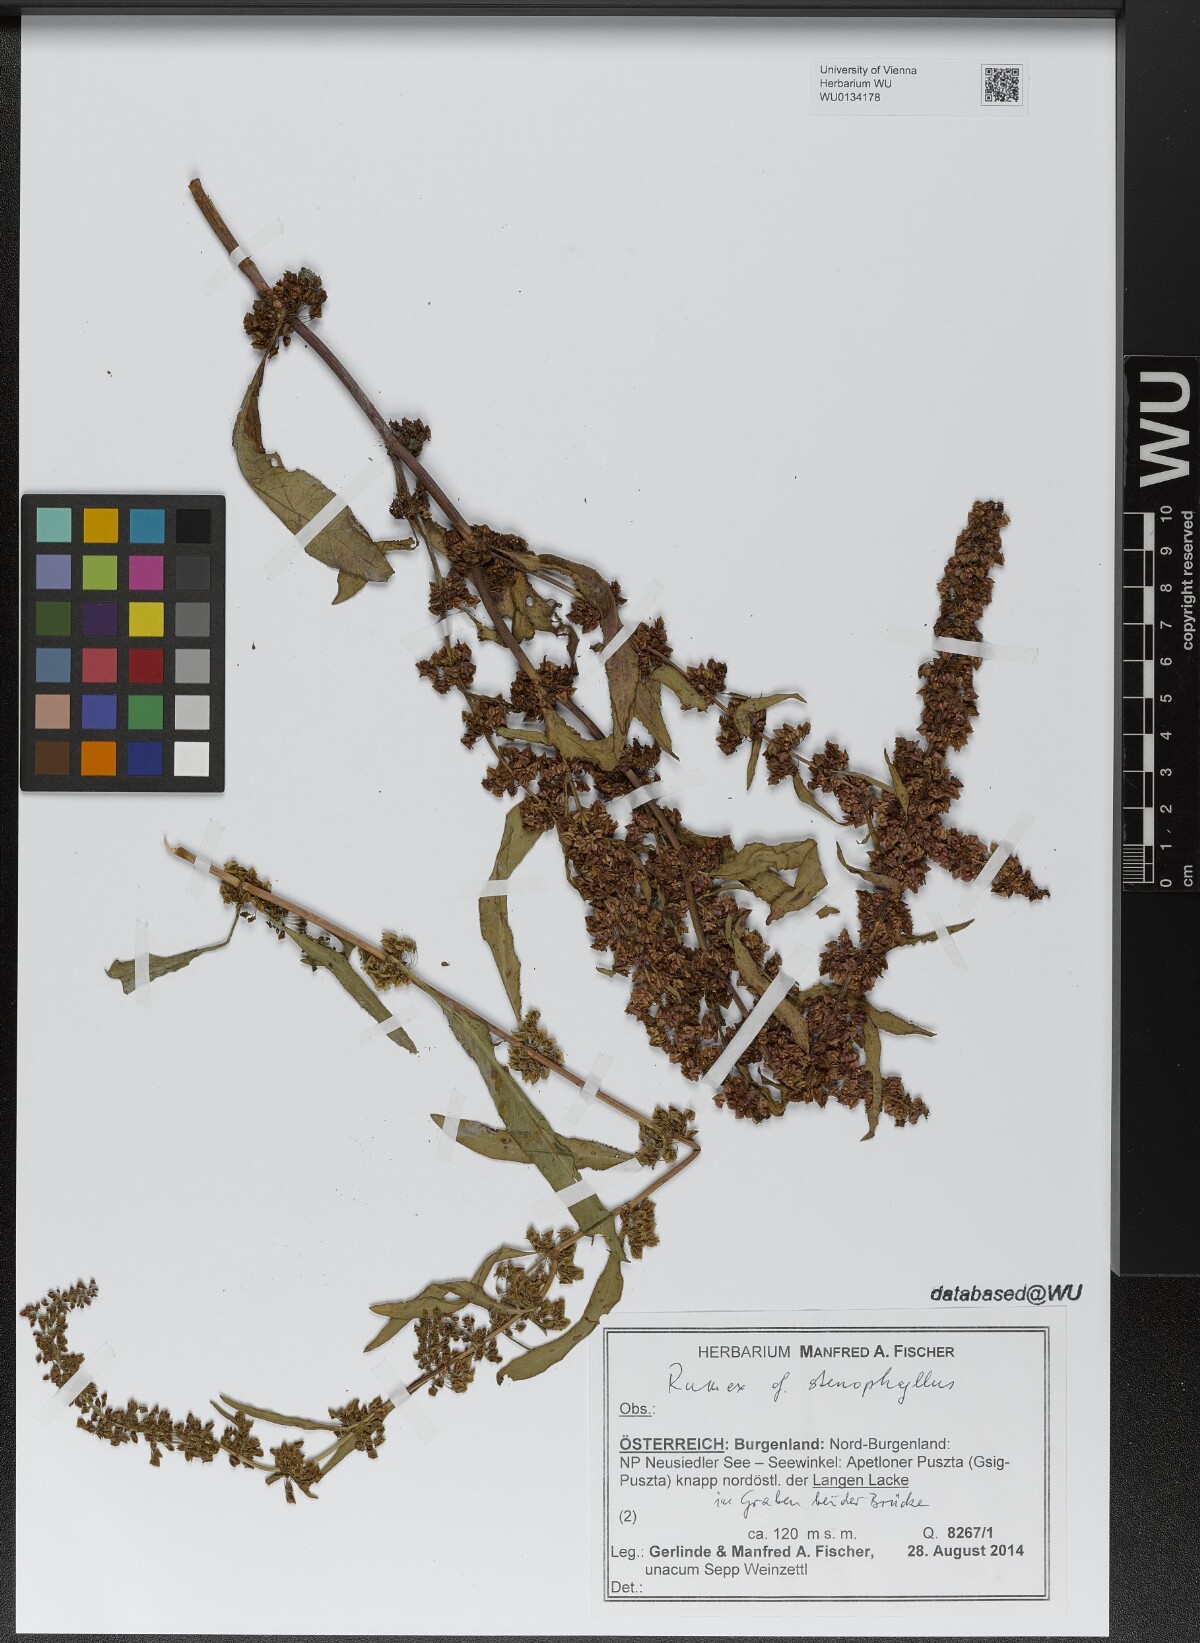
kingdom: Plantae
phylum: Tracheophyta
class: Magnoliopsida
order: Caryophyllales
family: Polygonaceae
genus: Rumex
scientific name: Rumex stenophyllus
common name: Narrowleaf dock
